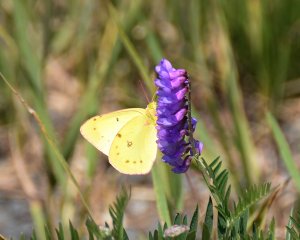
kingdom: Animalia
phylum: Arthropoda
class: Insecta
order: Lepidoptera
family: Pieridae
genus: Colias
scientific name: Colias philodice
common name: Clouded Sulphur
